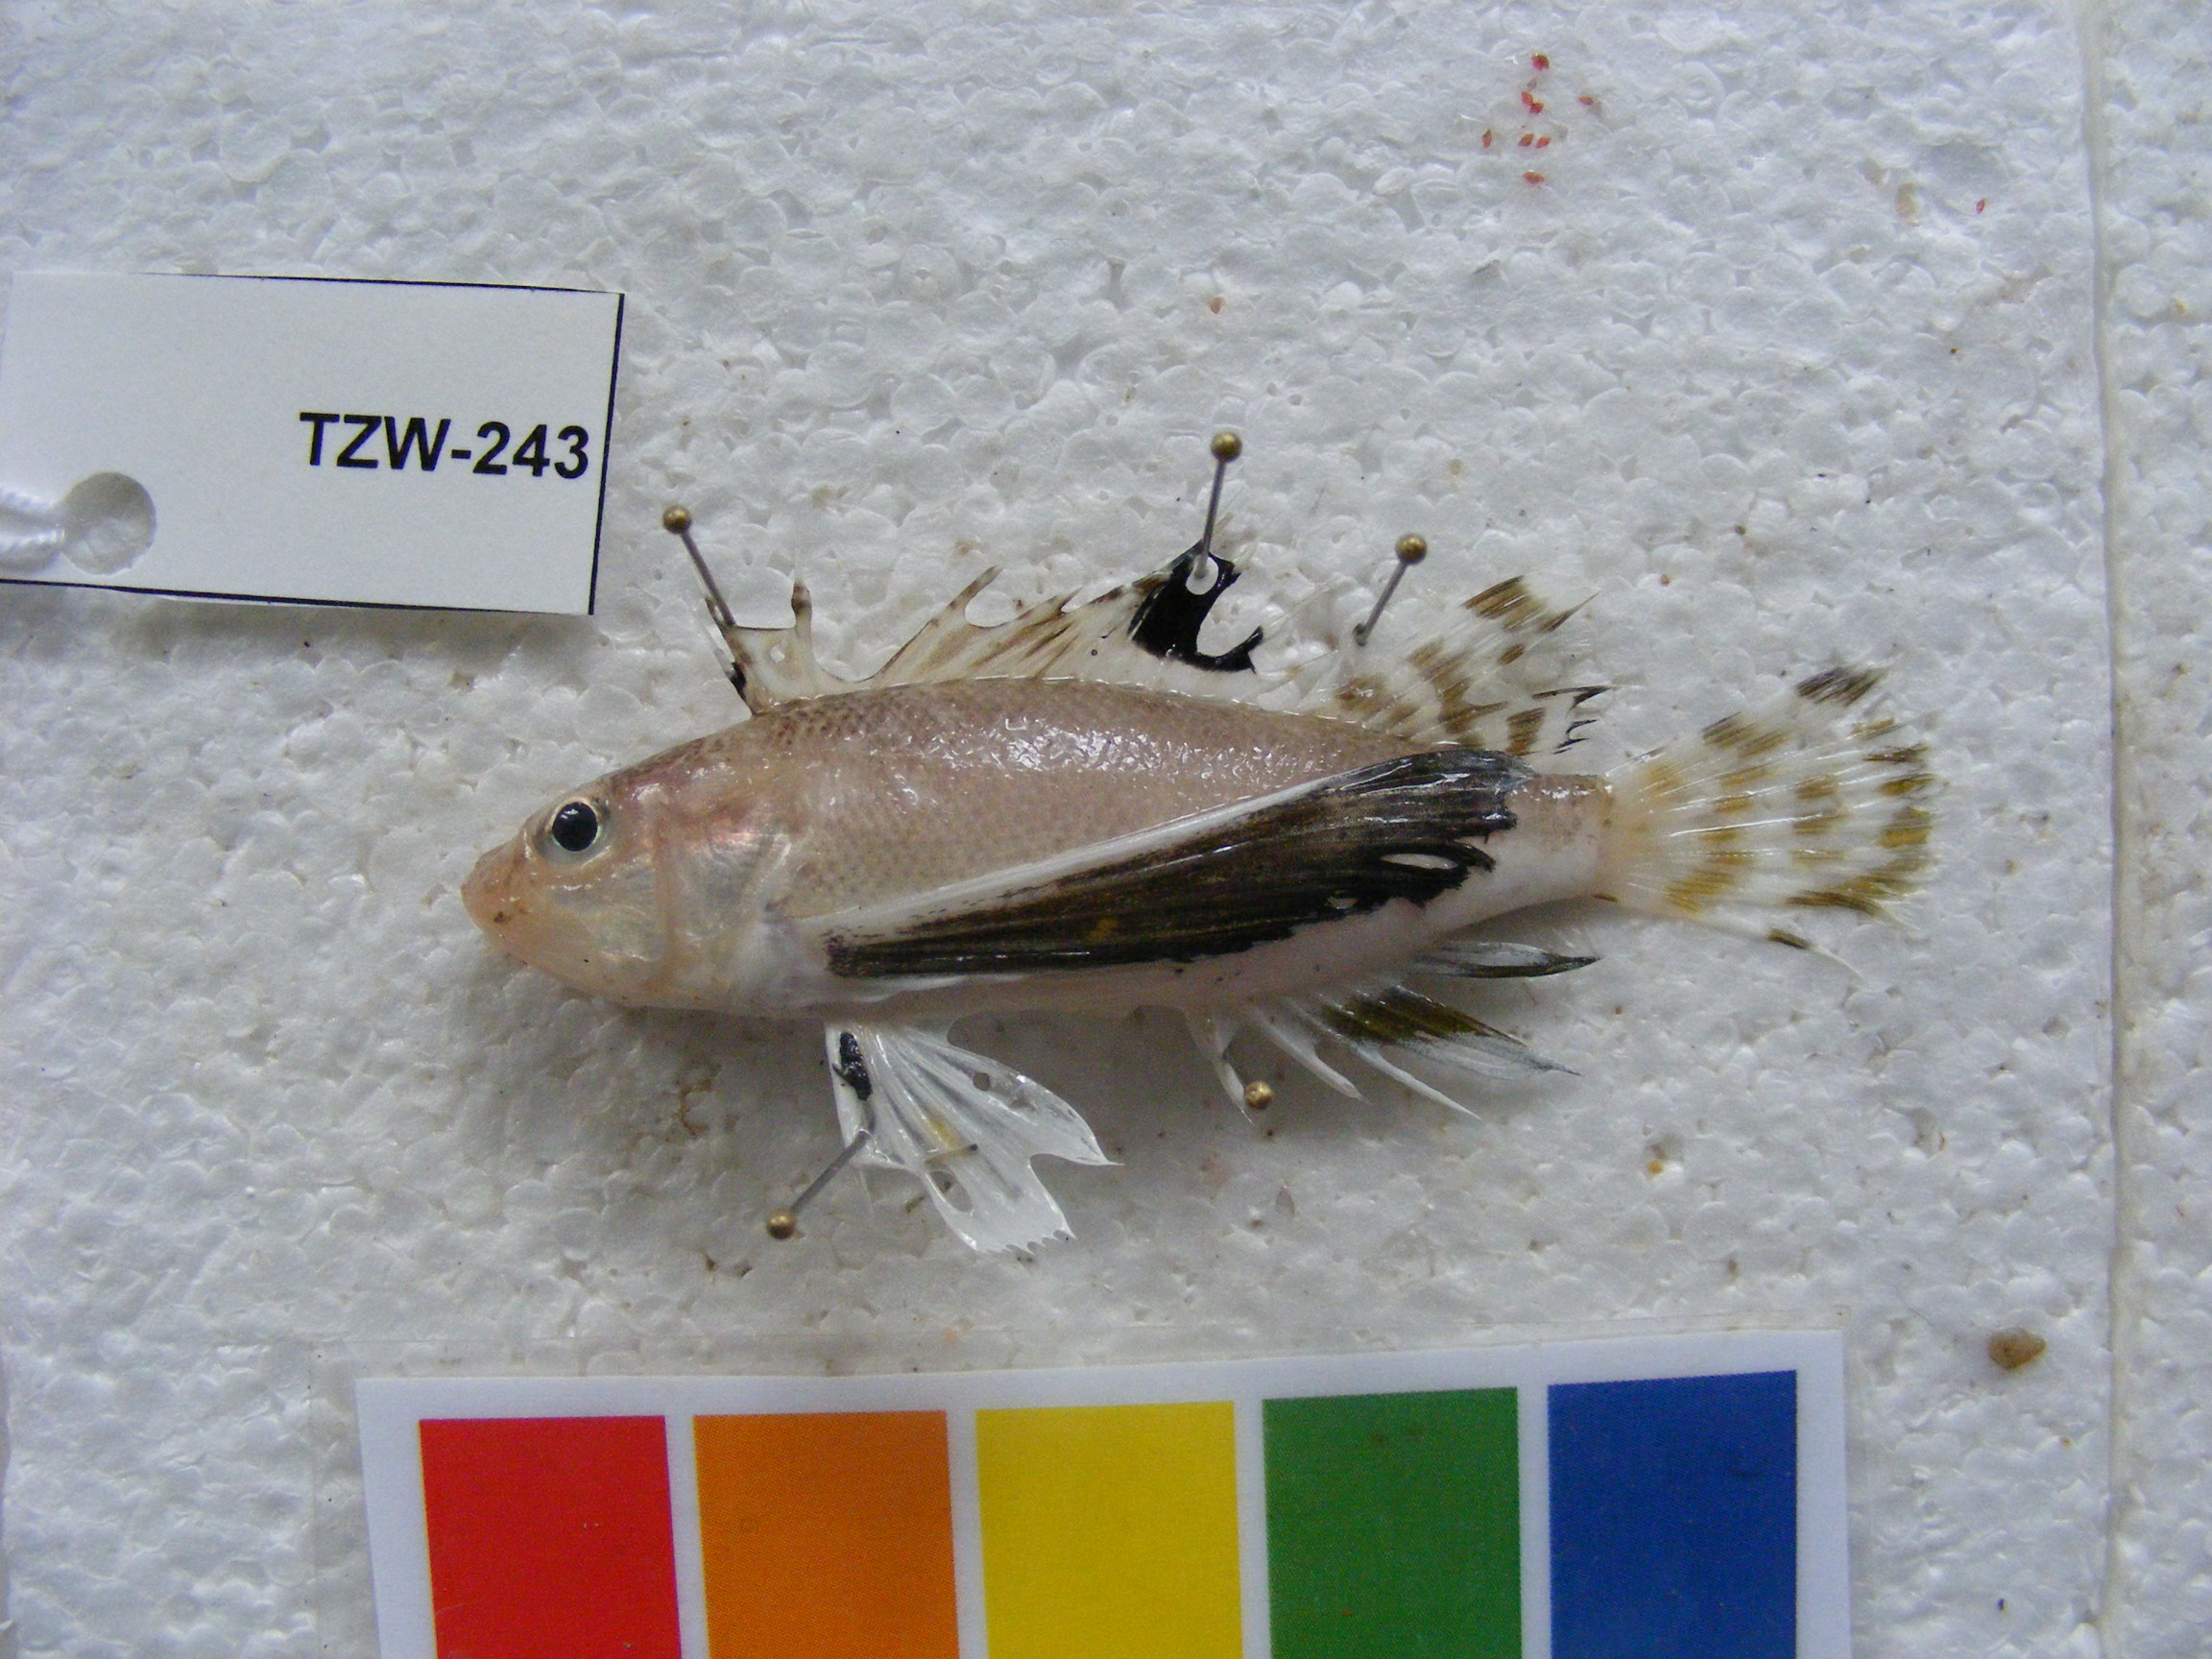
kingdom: Animalia
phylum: Chordata
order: Scorpaeniformes
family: Apistidae
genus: Apistus
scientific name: Apistus carinatus
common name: Ocellated waspfish
